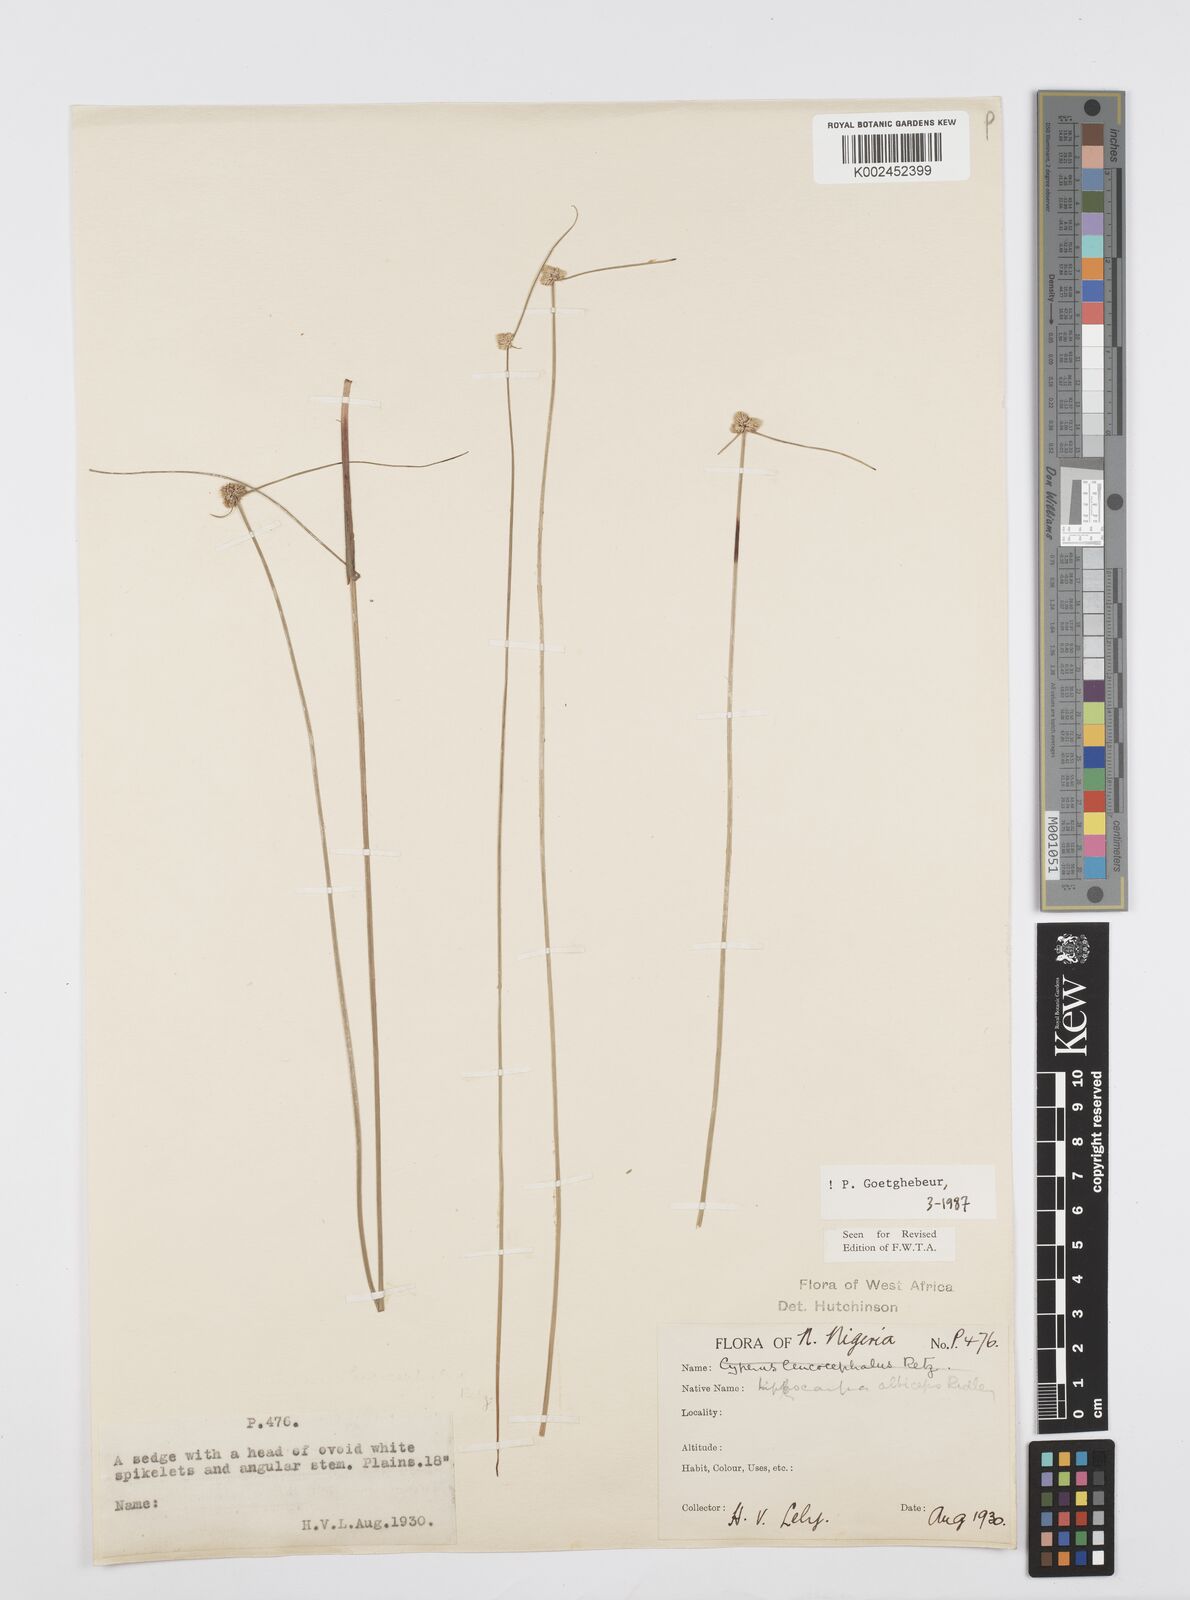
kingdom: Plantae
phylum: Tracheophyta
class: Liliopsida
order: Poales
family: Cyperaceae
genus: Cyperus
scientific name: Cyperus albiceps
